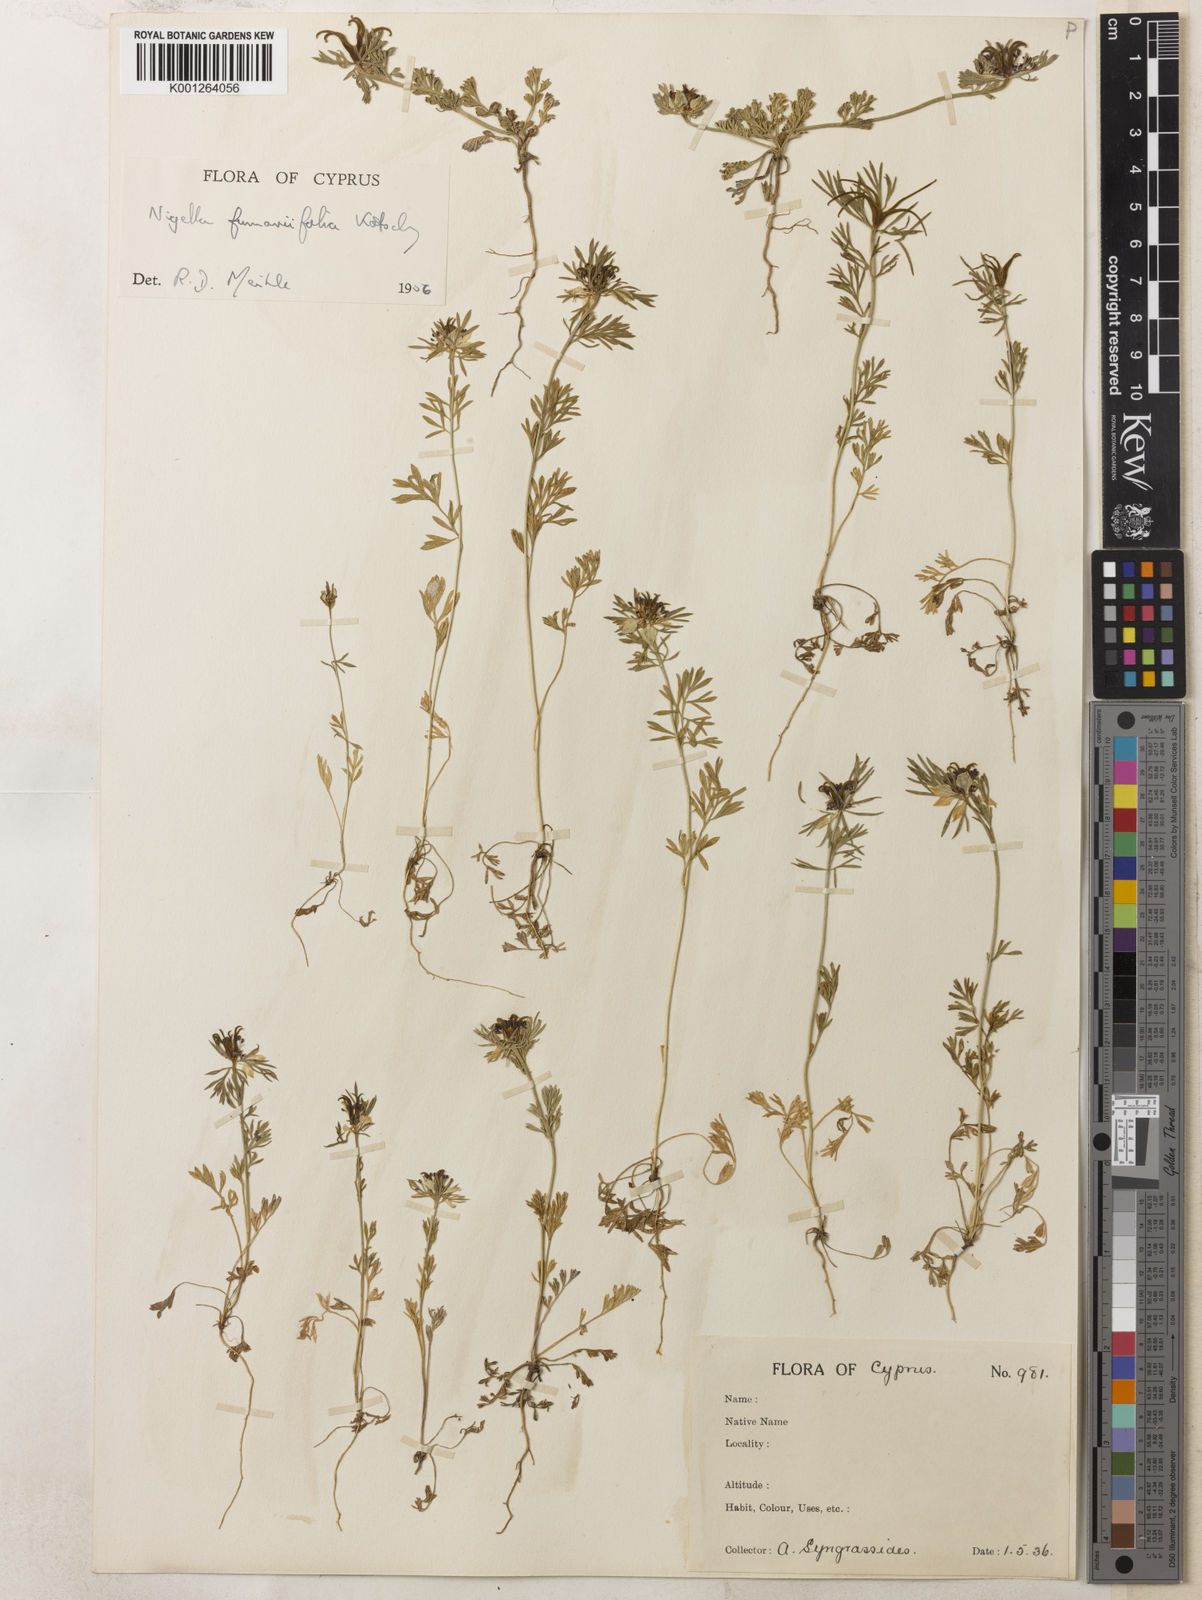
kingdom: Plantae
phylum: Tracheophyta
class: Magnoliopsida
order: Ranunculales
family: Ranunculaceae
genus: Nigella
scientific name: Nigella
